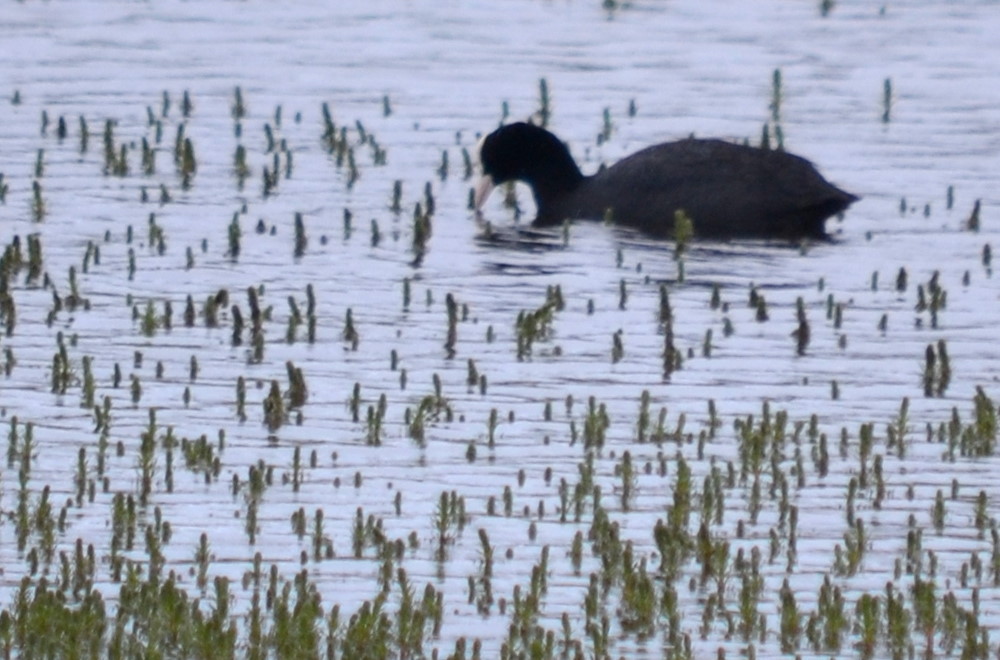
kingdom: Animalia
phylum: Chordata
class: Aves
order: Gruiformes
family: Rallidae
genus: Fulica
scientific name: Fulica atra
